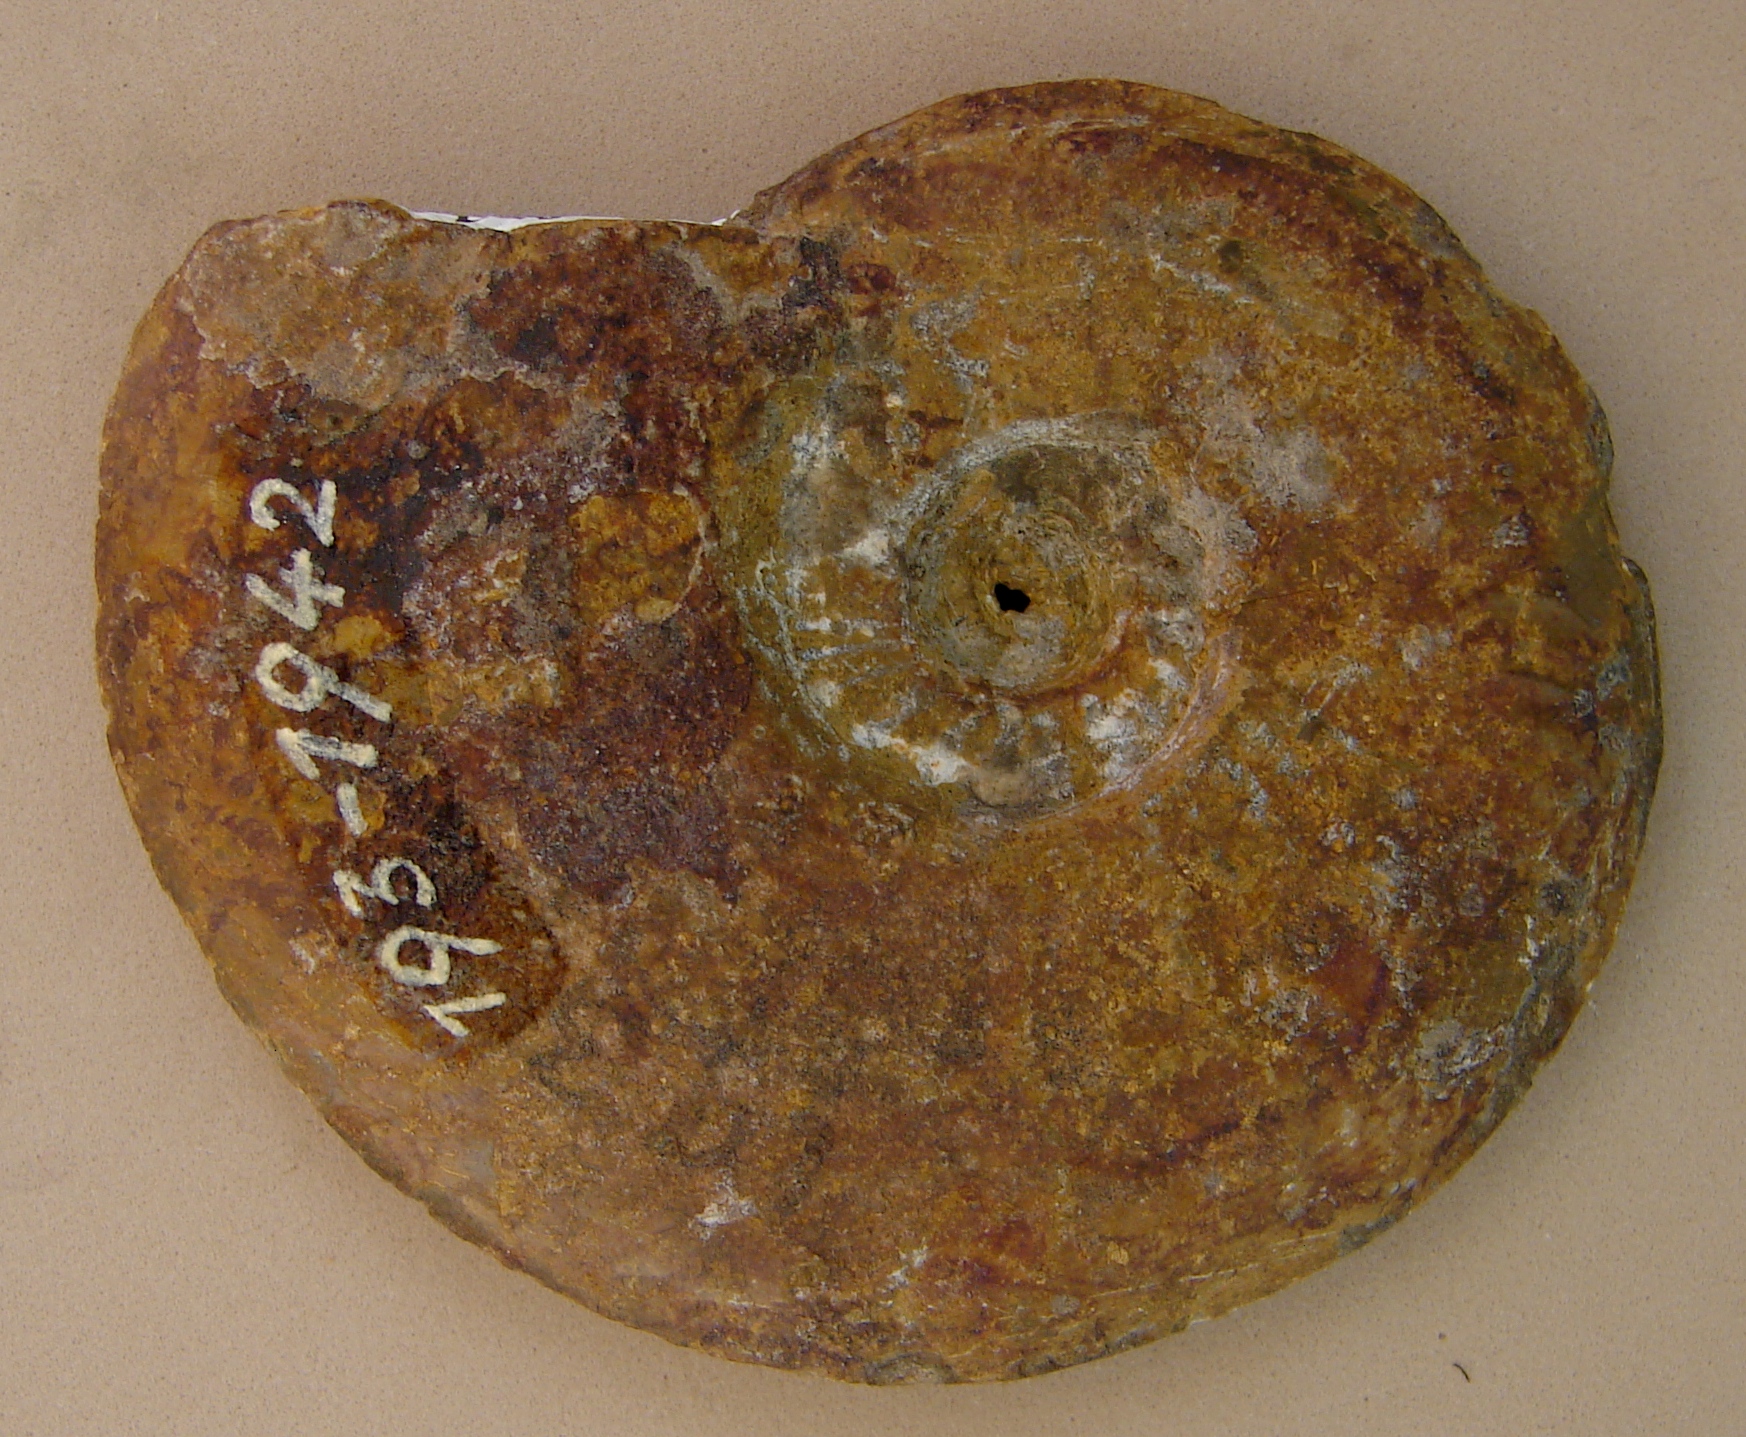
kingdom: Animalia
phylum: Mollusca
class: Cephalopoda
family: Hildoceratidae
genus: Pleydellia
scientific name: Pleydellia
